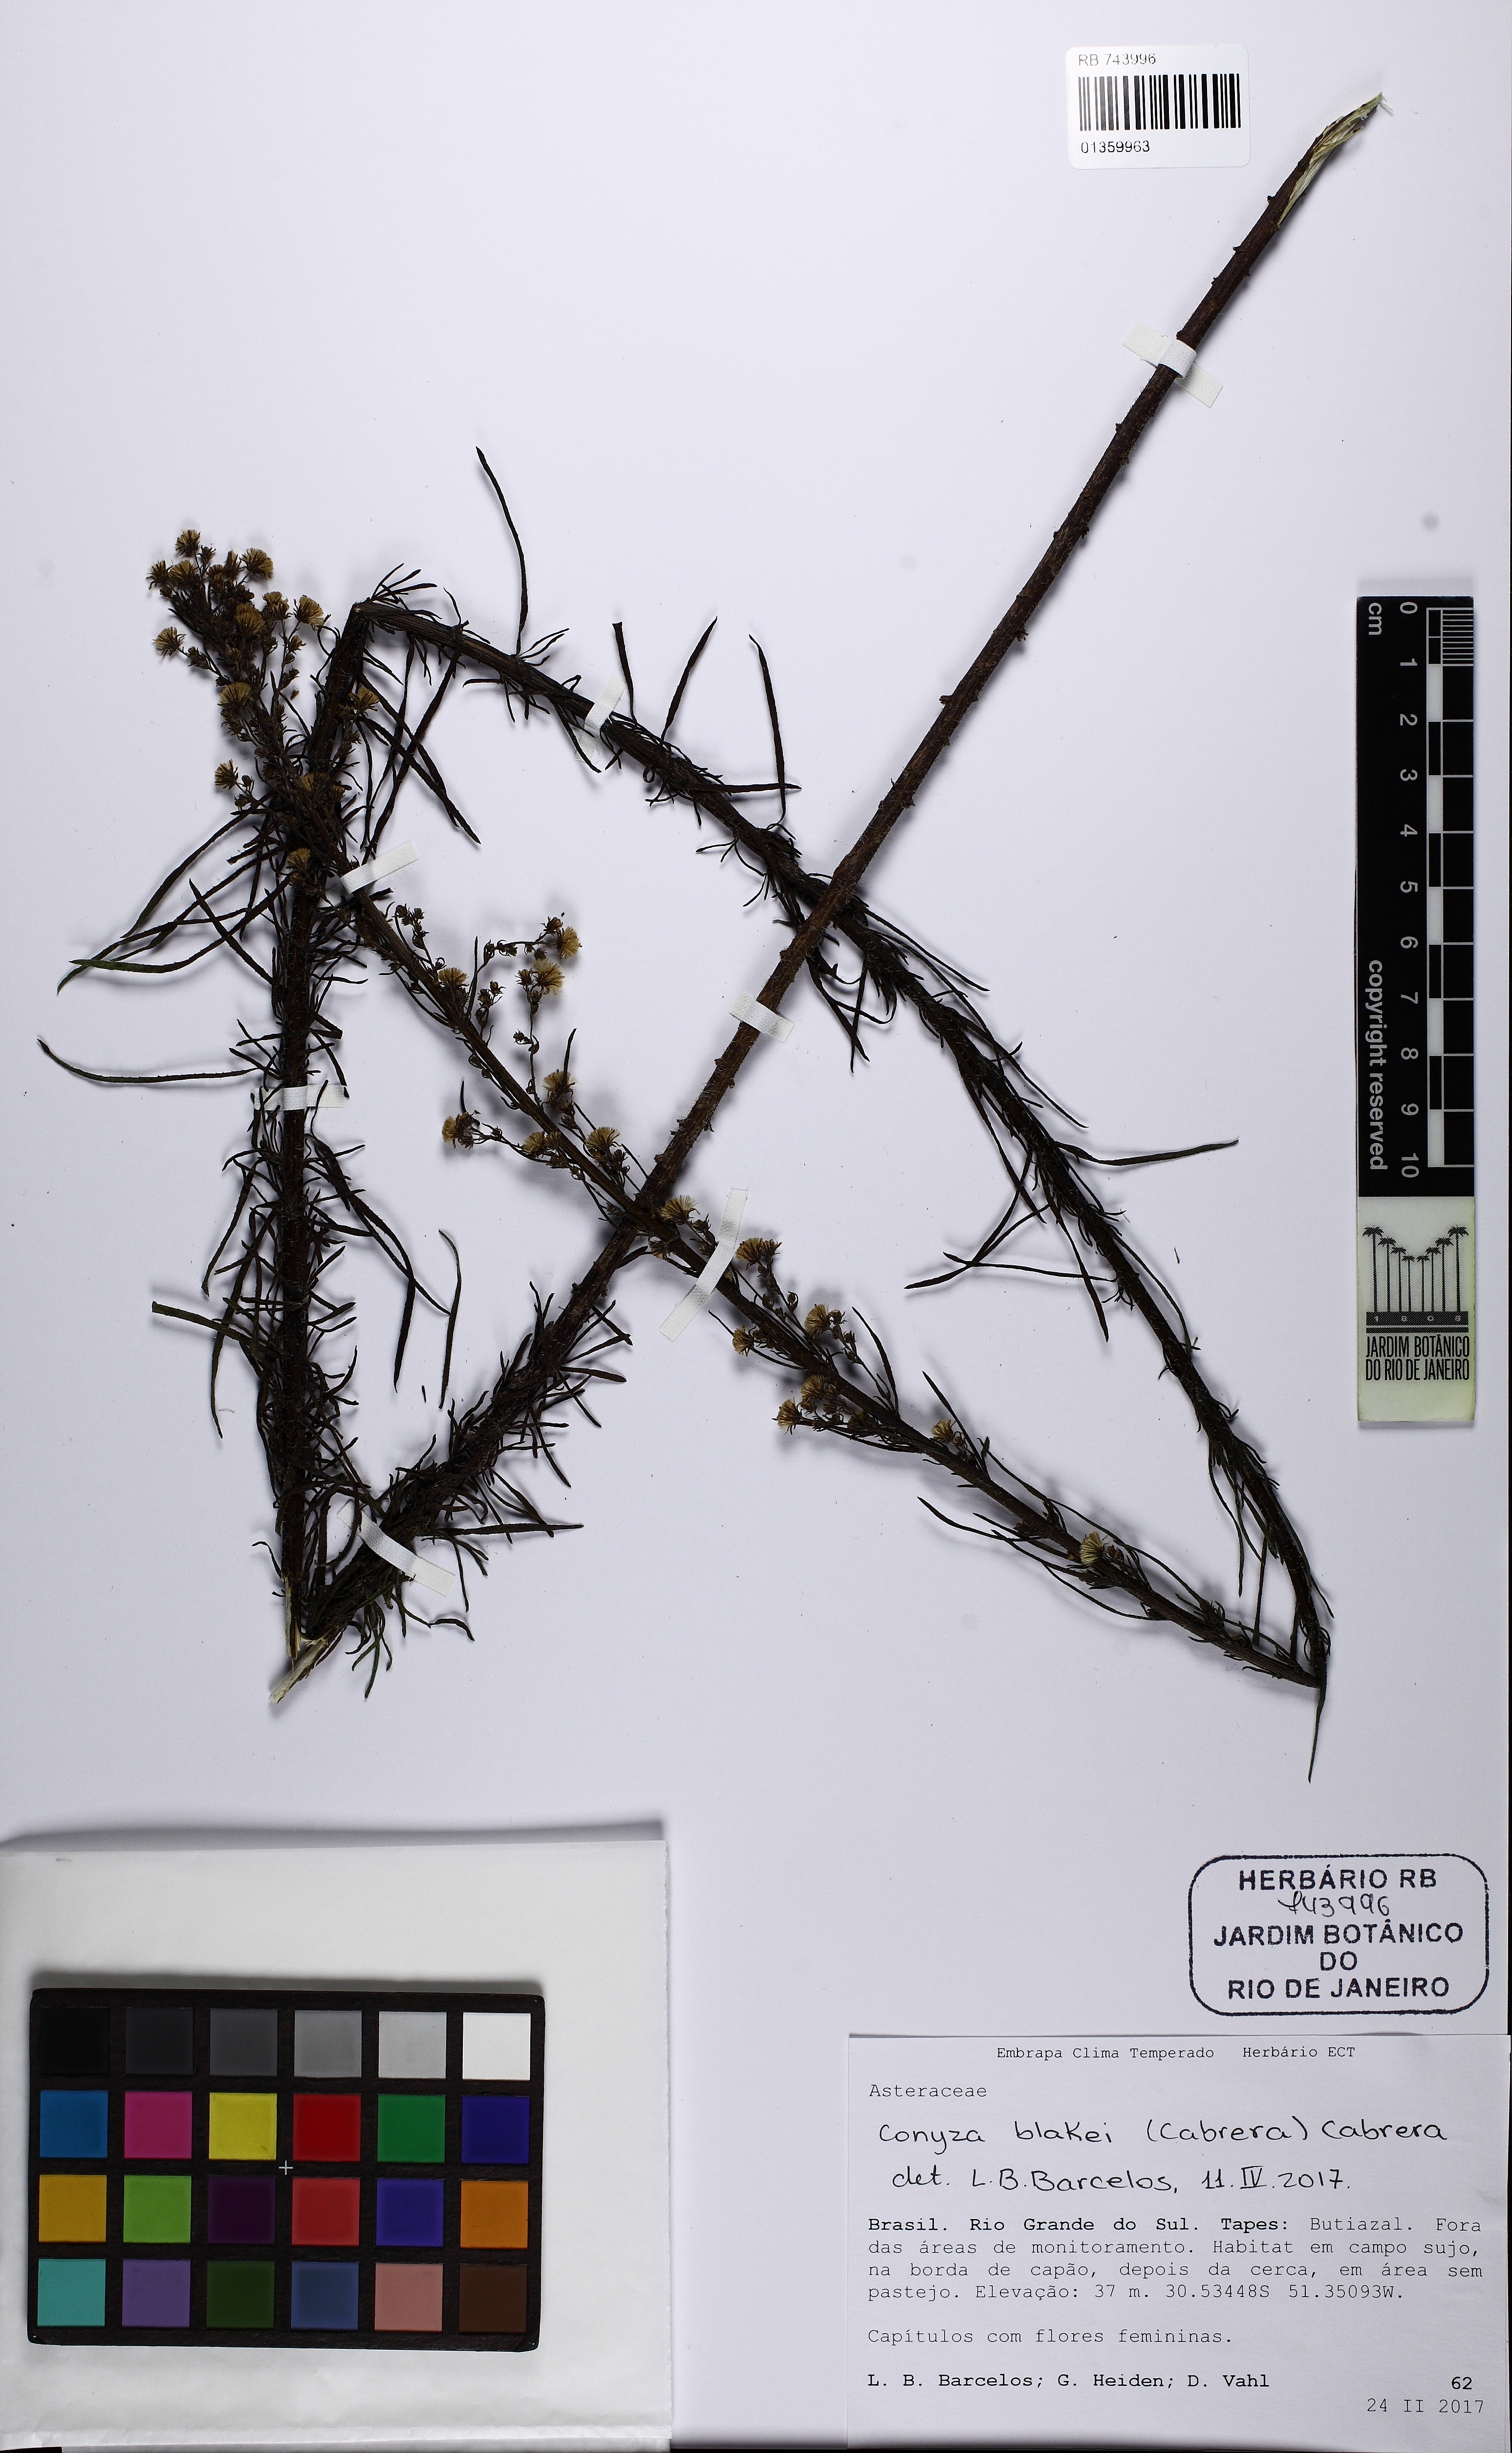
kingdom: Plantae
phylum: Tracheophyta
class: Magnoliopsida
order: Asterales
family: Asteraceae
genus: Erigeron
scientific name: Erigeron blakei
